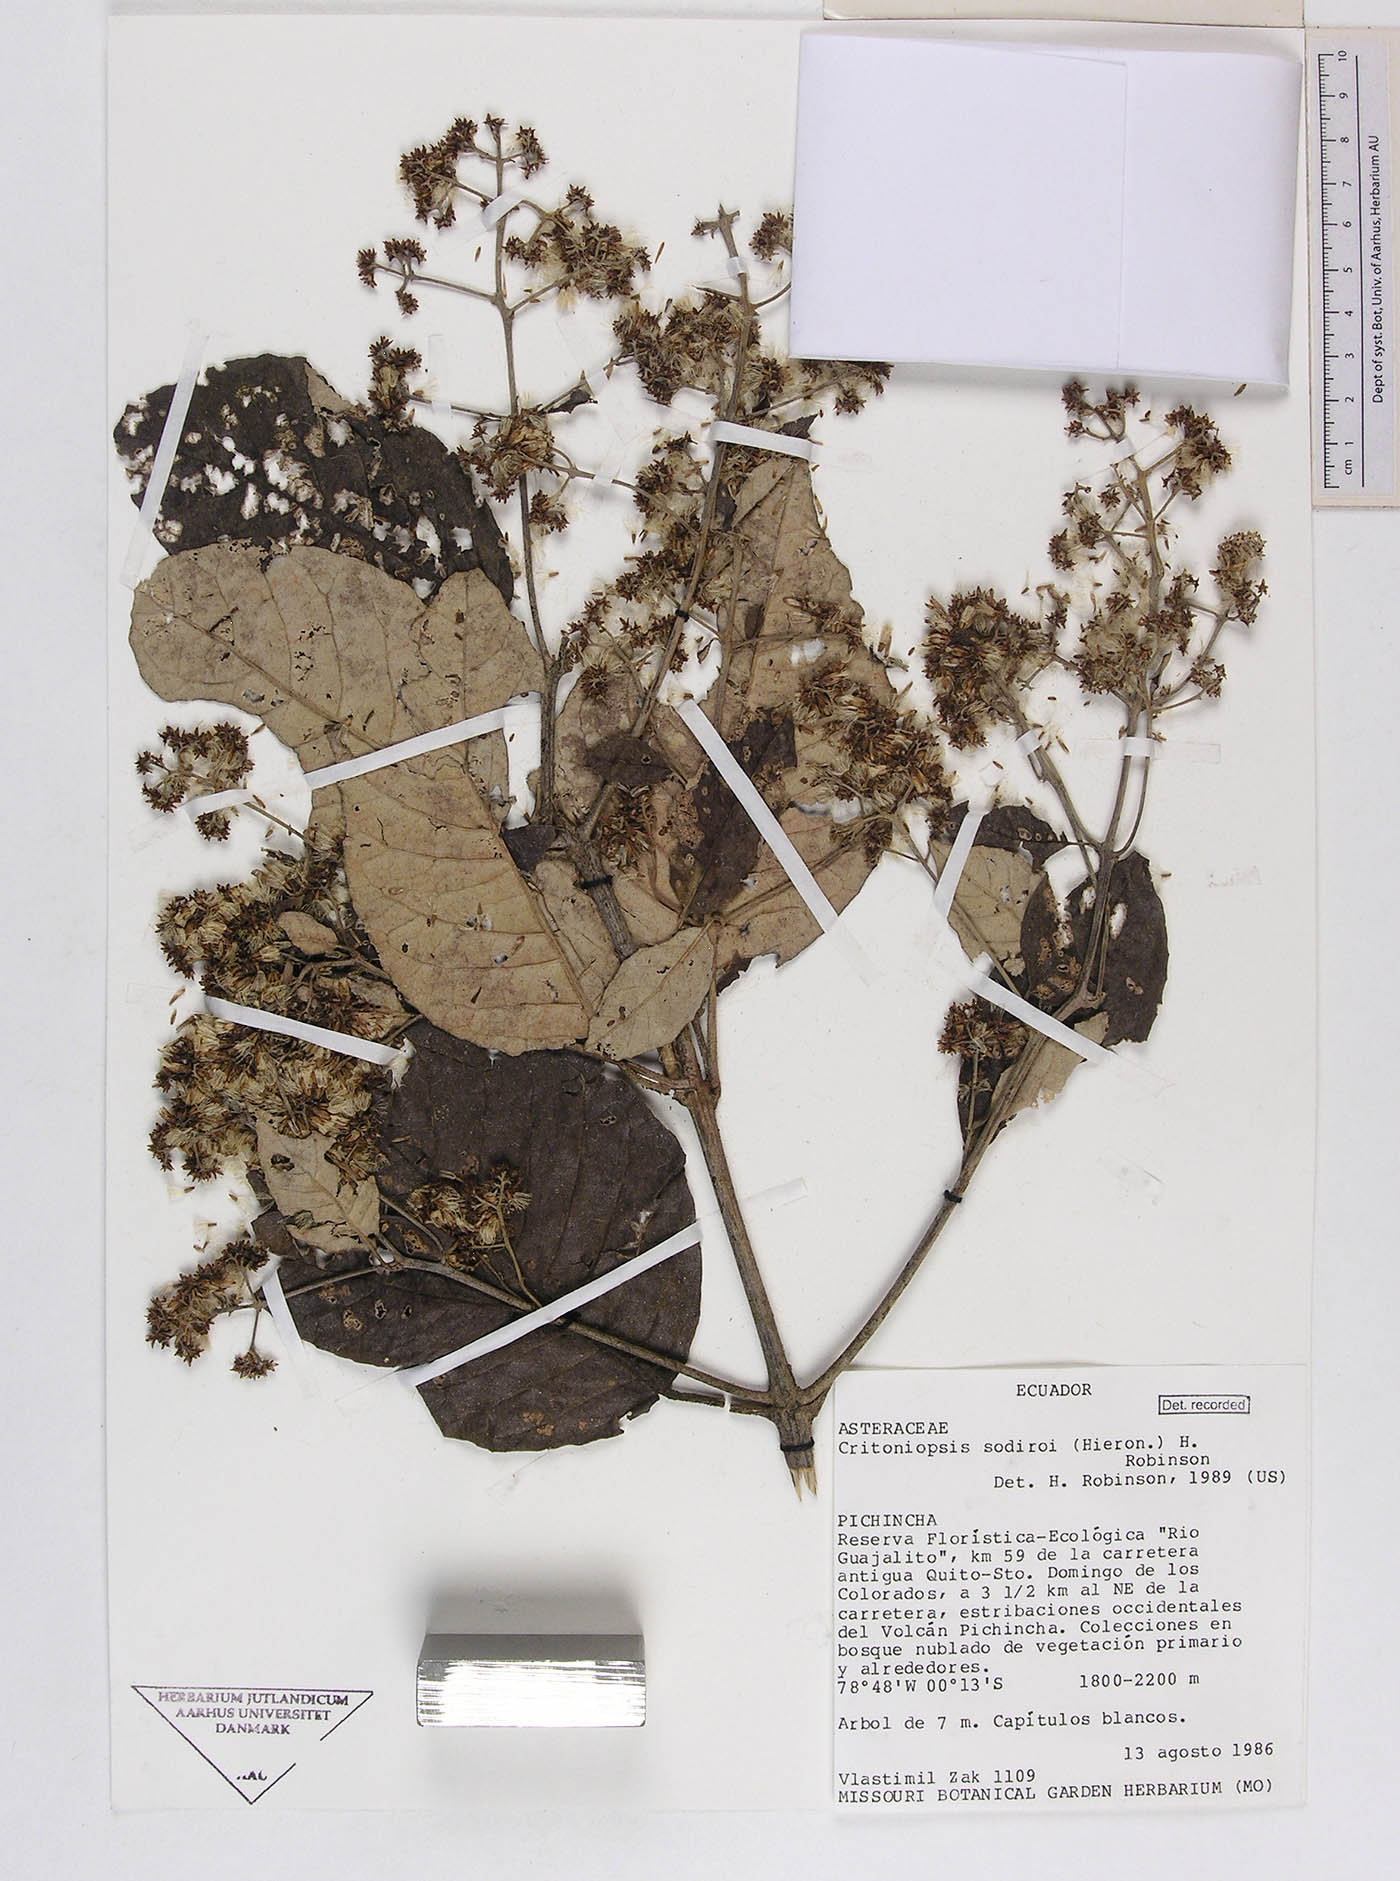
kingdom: Plantae
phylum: Tracheophyta
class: Magnoliopsida
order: Asterales
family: Asteraceae
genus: Critoniopsis
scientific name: Critoniopsis sodiroi
